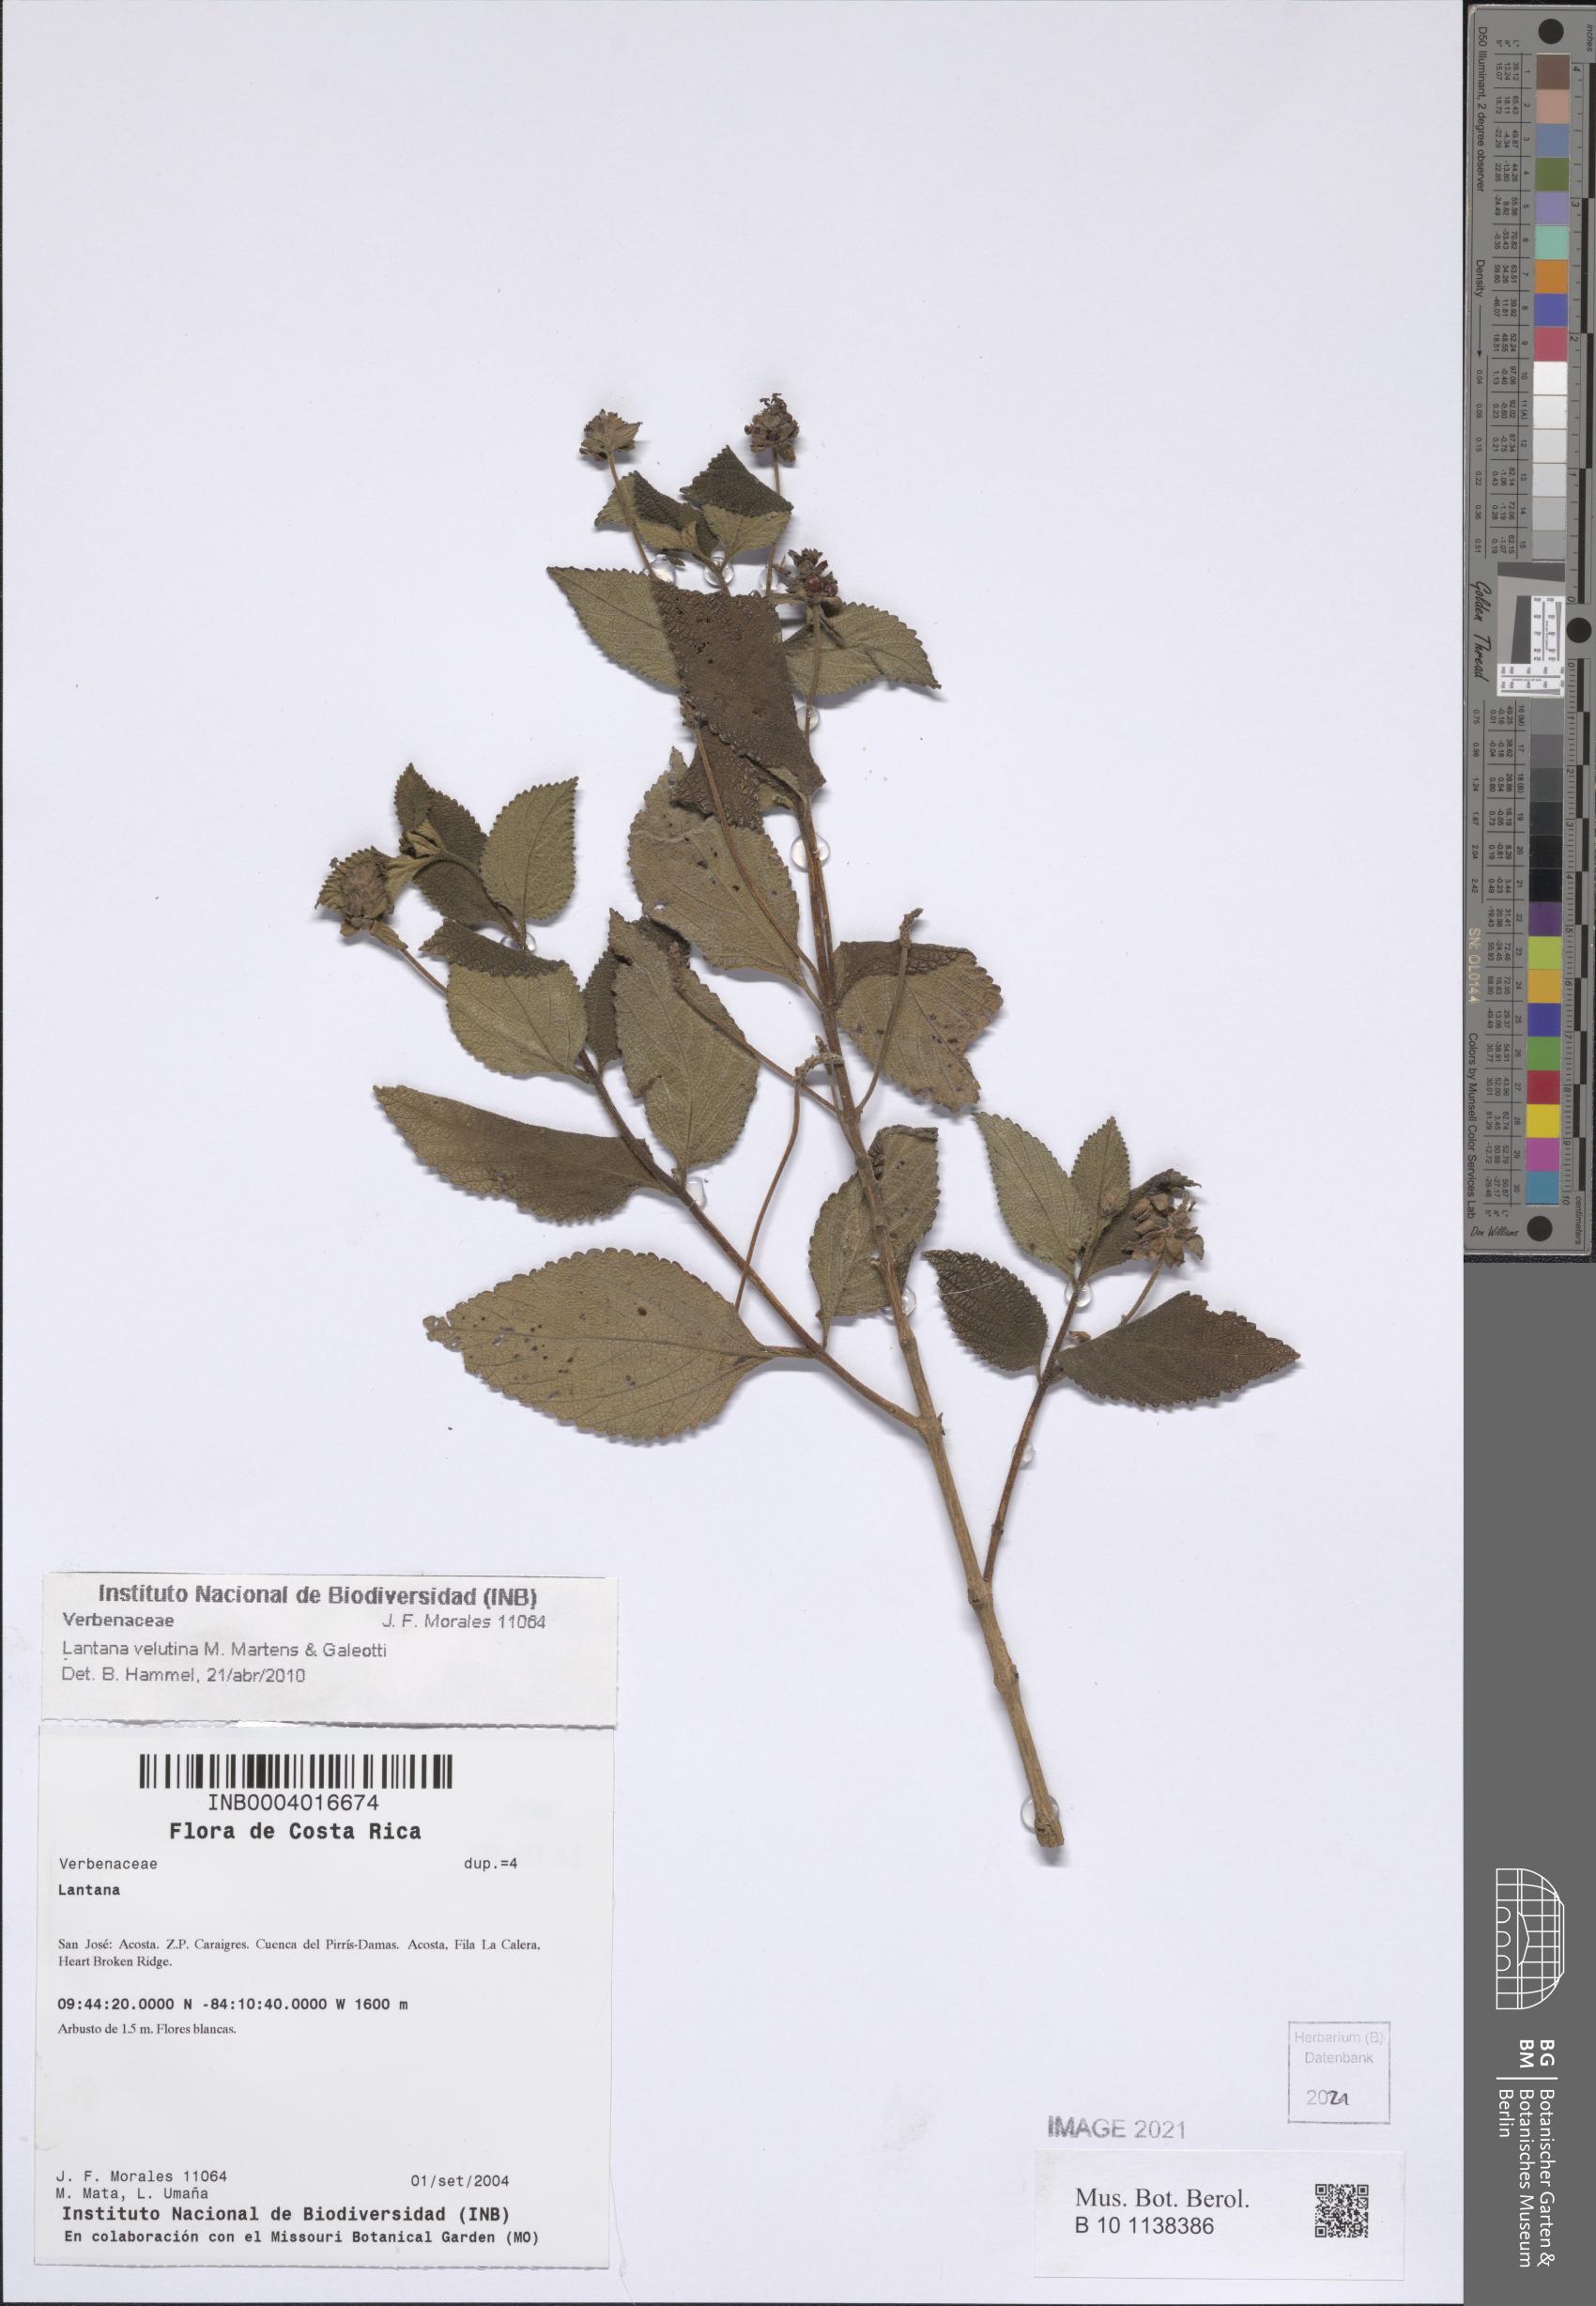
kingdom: Plantae
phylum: Tracheophyta
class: Magnoliopsida
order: Lamiales
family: Verbenaceae
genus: Lantana
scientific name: Lantana velutina
